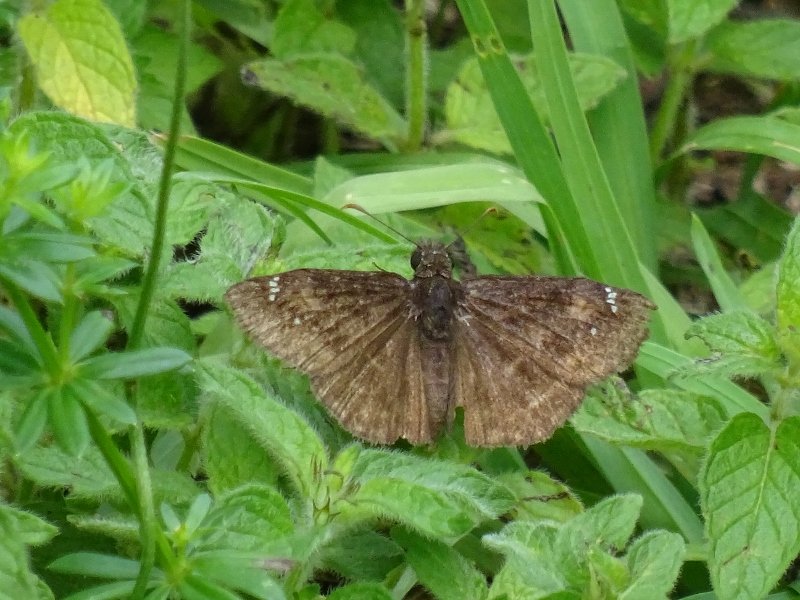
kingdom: Animalia
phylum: Arthropoda
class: Insecta
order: Lepidoptera
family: Hesperiidae
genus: Gesta
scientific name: Gesta
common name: Wild Indigo Duskywing
